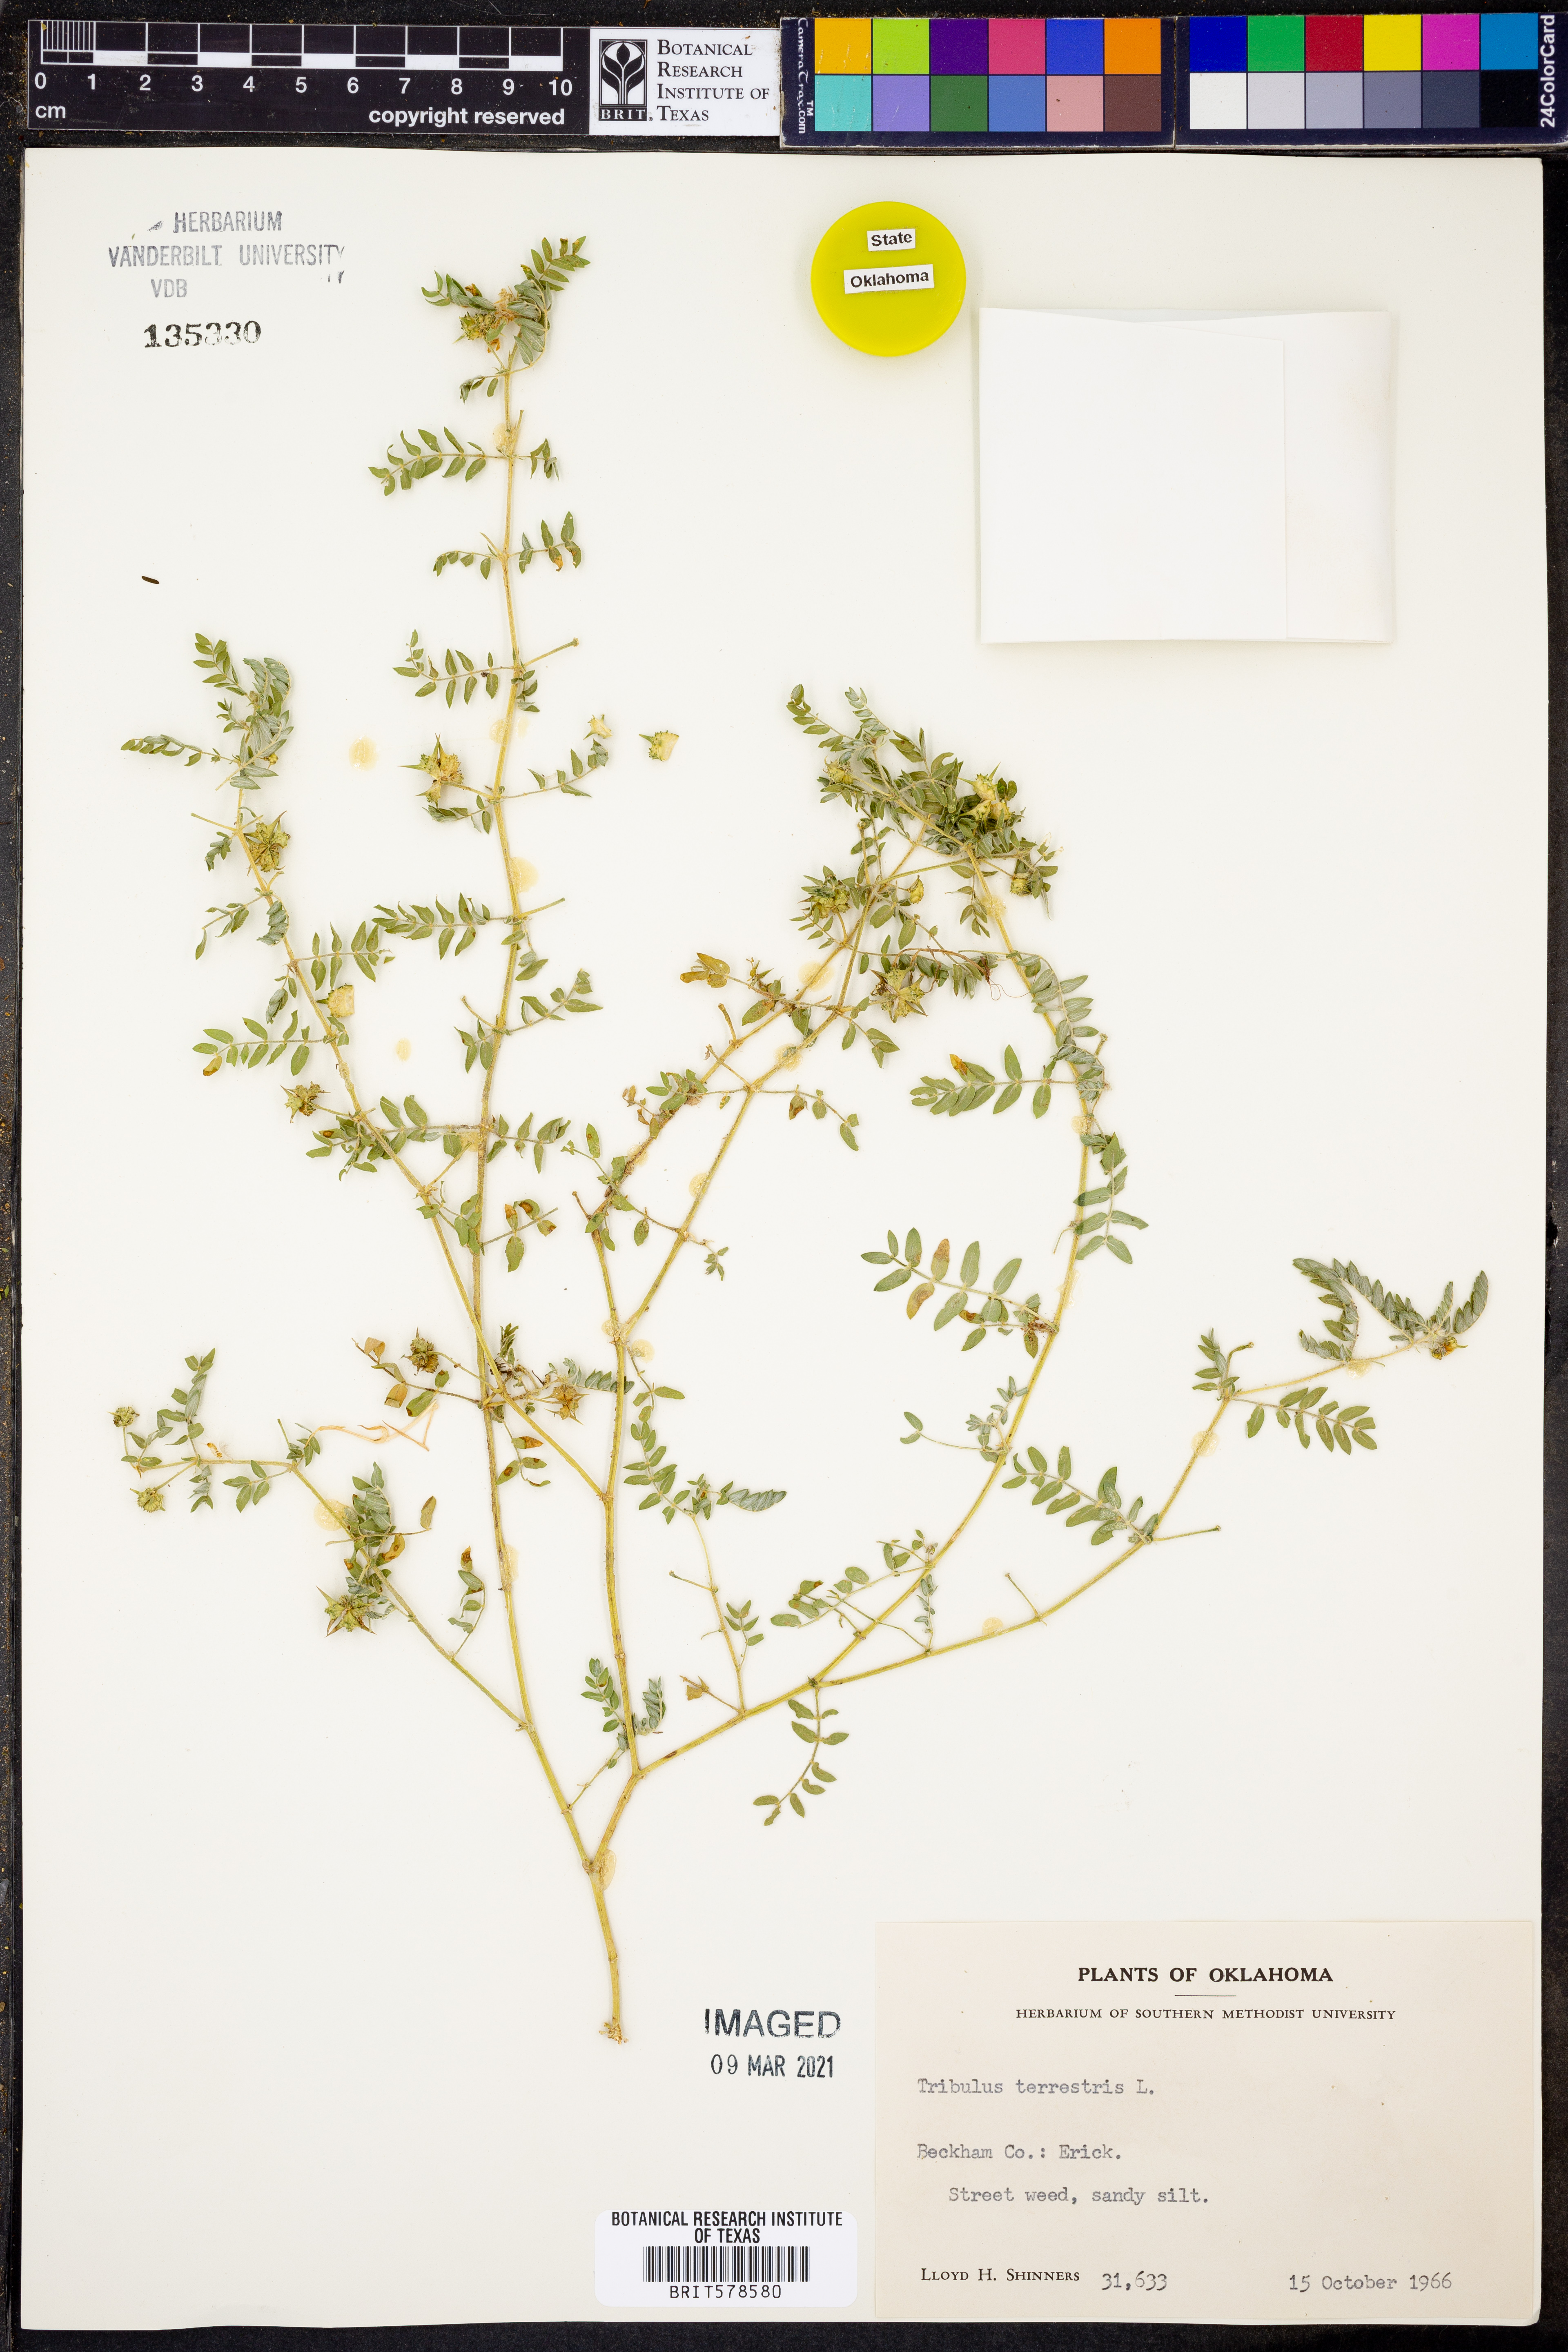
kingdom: Plantae
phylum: Tracheophyta
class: Magnoliopsida
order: Zygophyllales
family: Zygophyllaceae
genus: Tribulus
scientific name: Tribulus terrestris
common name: Puncturevine
